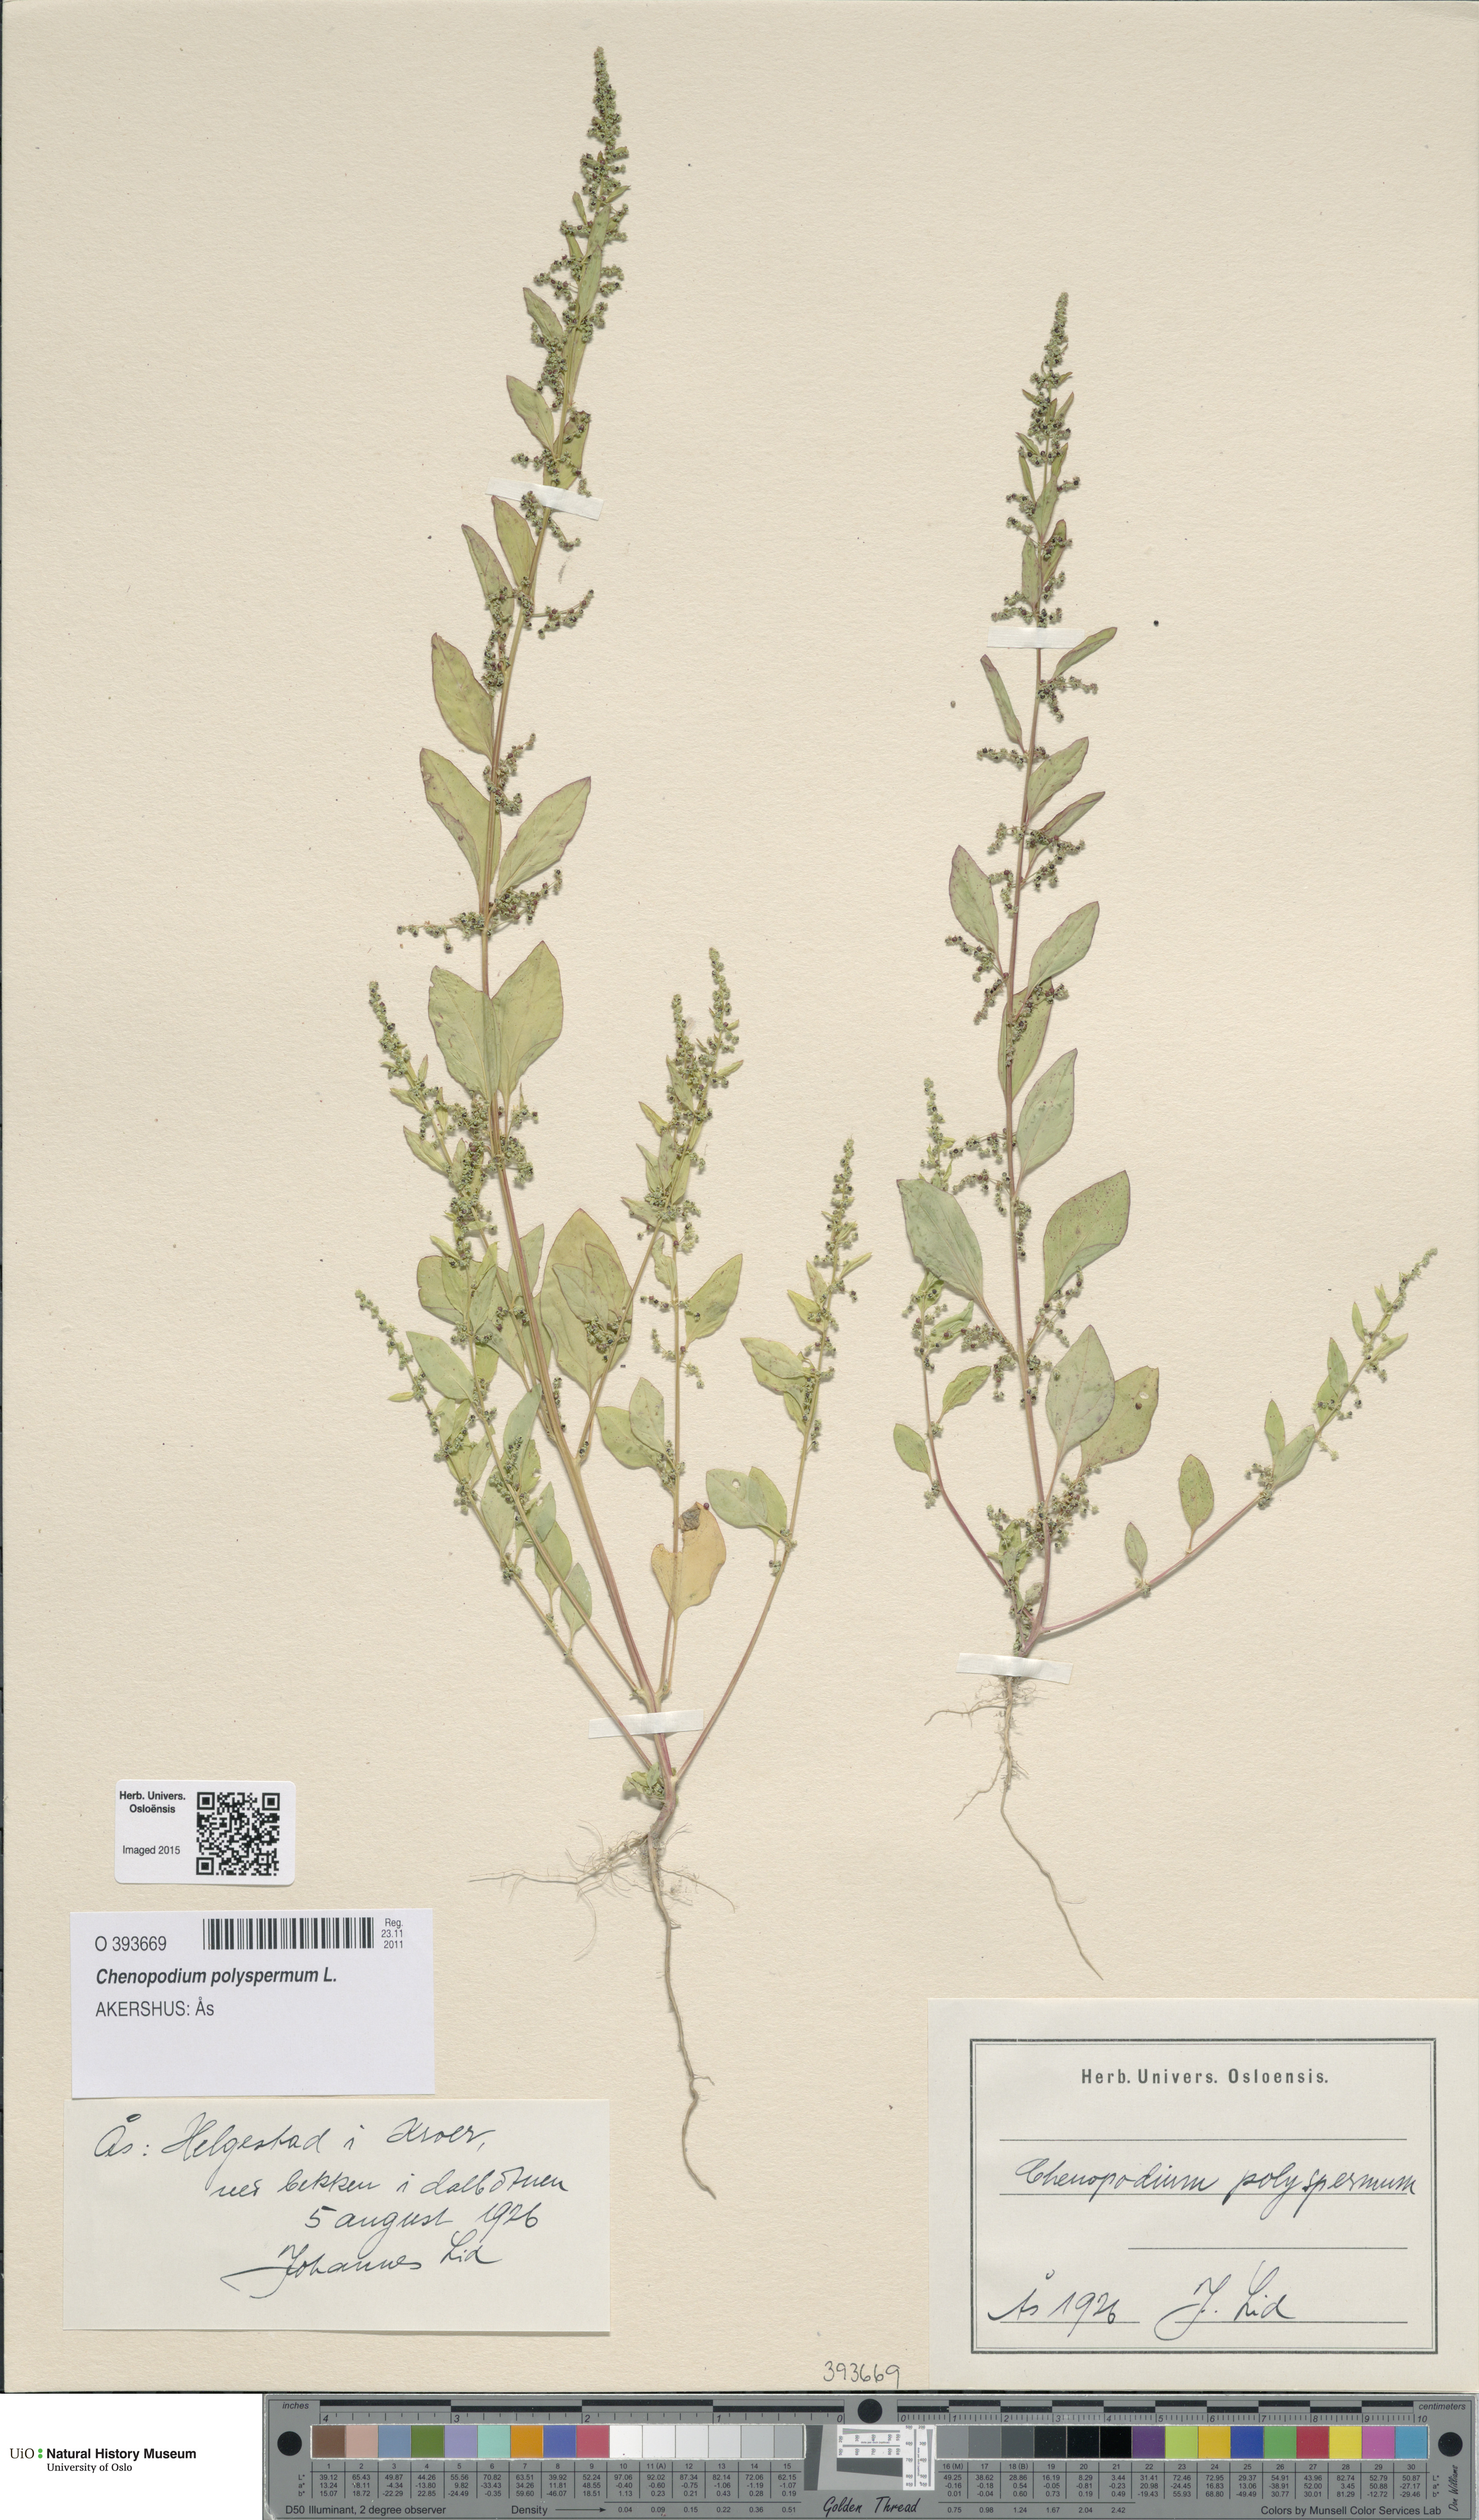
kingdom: Plantae
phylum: Tracheophyta
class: Magnoliopsida
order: Caryophyllales
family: Amaranthaceae
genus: Lipandra
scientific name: Lipandra polysperma
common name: Many-seed goosefoot
